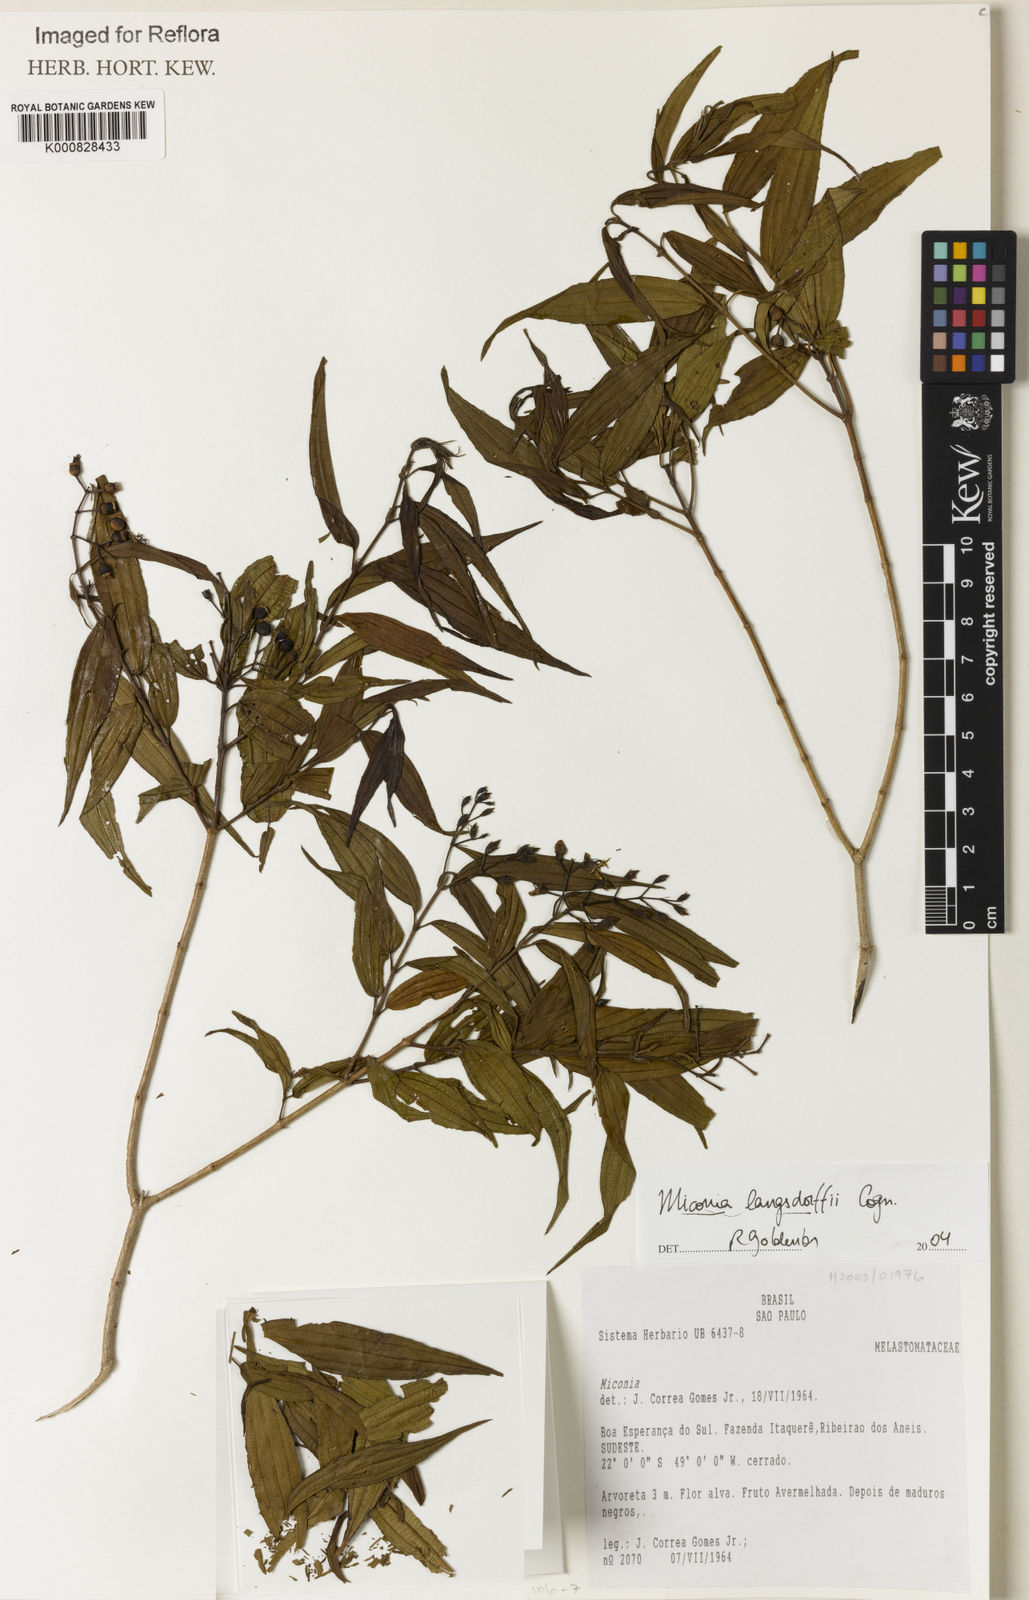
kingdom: Plantae
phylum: Tracheophyta
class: Magnoliopsida
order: Myrtales
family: Melastomataceae
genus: Miconia
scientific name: Miconia langsdorffii
